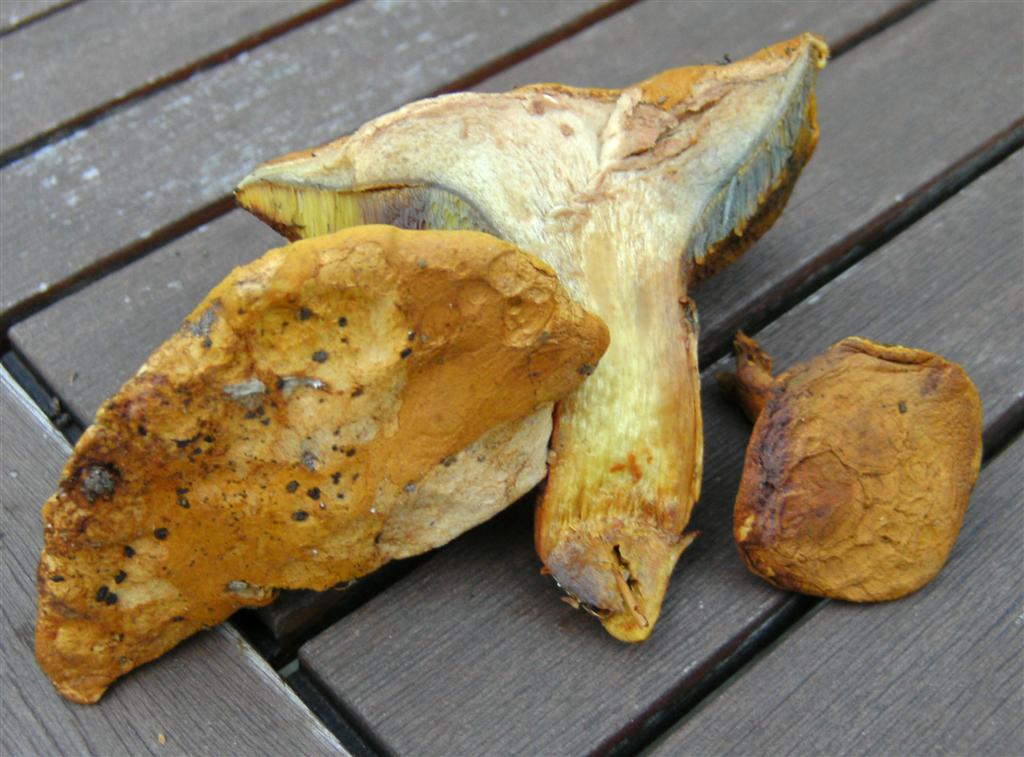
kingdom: Fungi
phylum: Basidiomycota
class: Agaricomycetes
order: Boletales
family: Boletaceae
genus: Buchwaldoboletus
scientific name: Buchwaldoboletus lignicola
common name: stødrørhat
